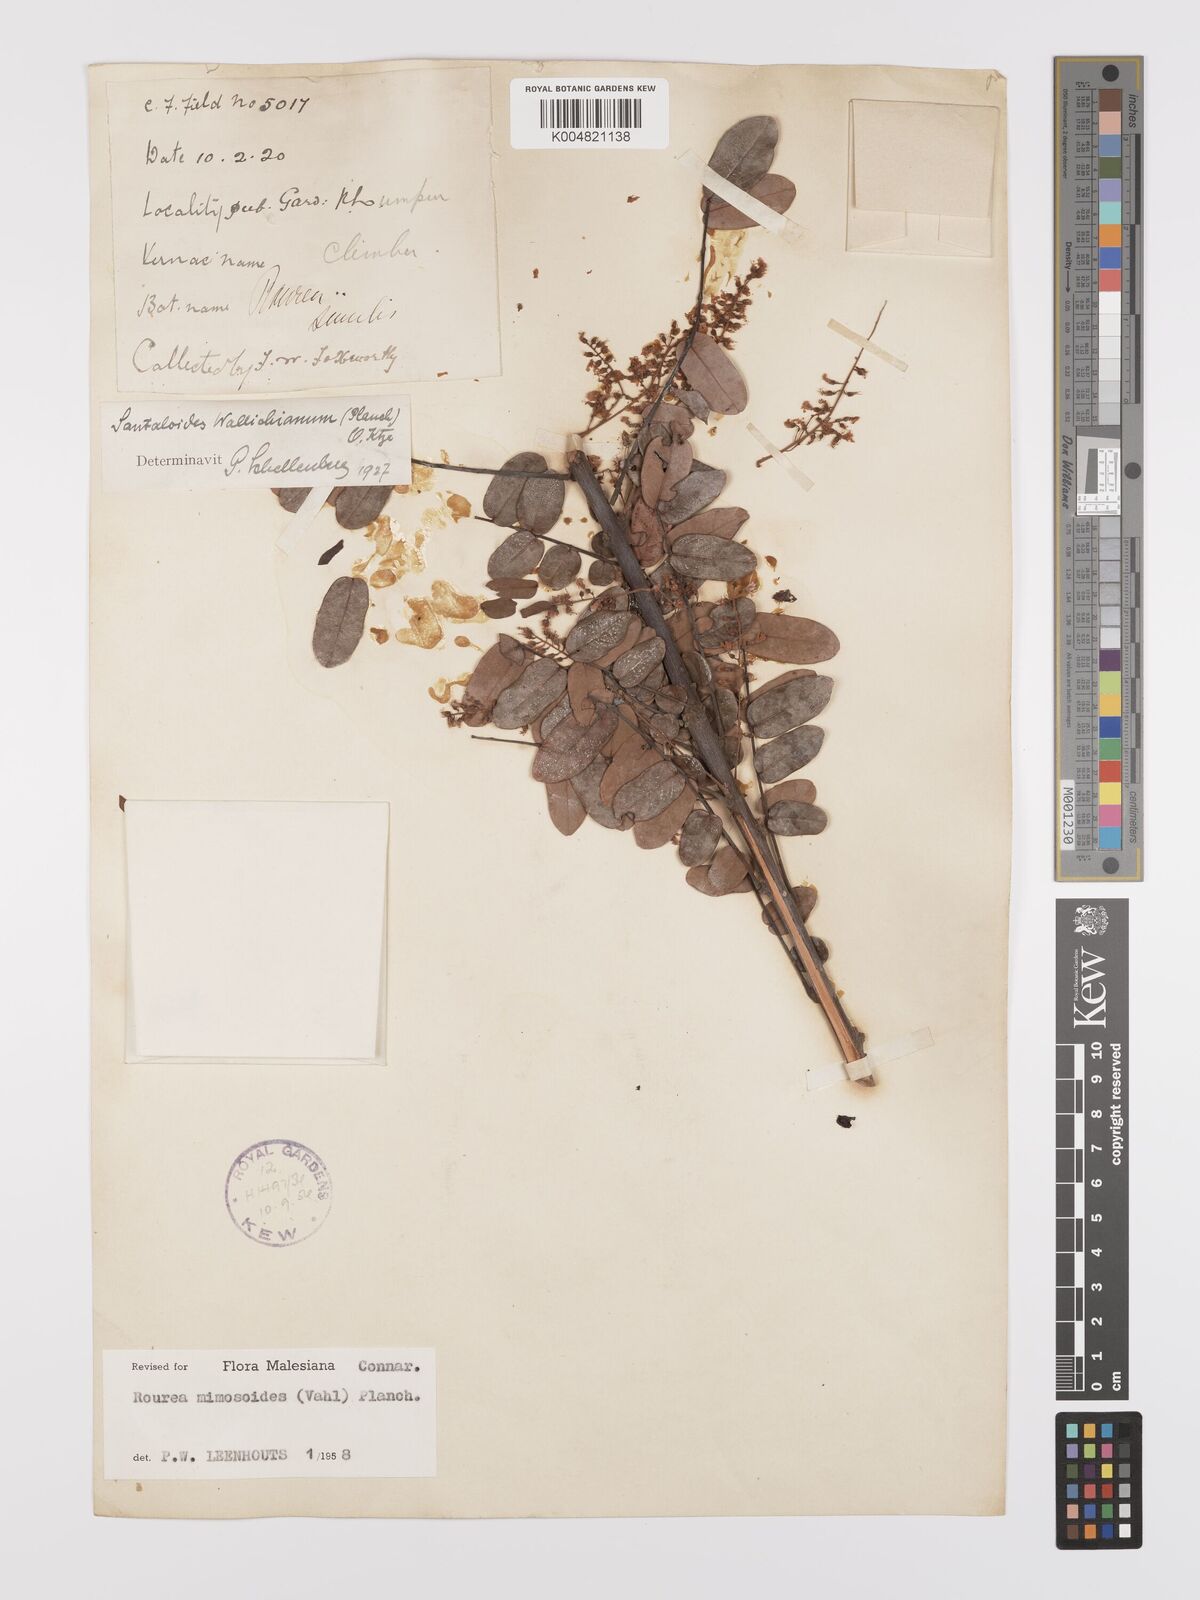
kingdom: Plantae
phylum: Tracheophyta
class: Magnoliopsida
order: Oxalidales
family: Connaraceae
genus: Rourea
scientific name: Rourea mimosoides
